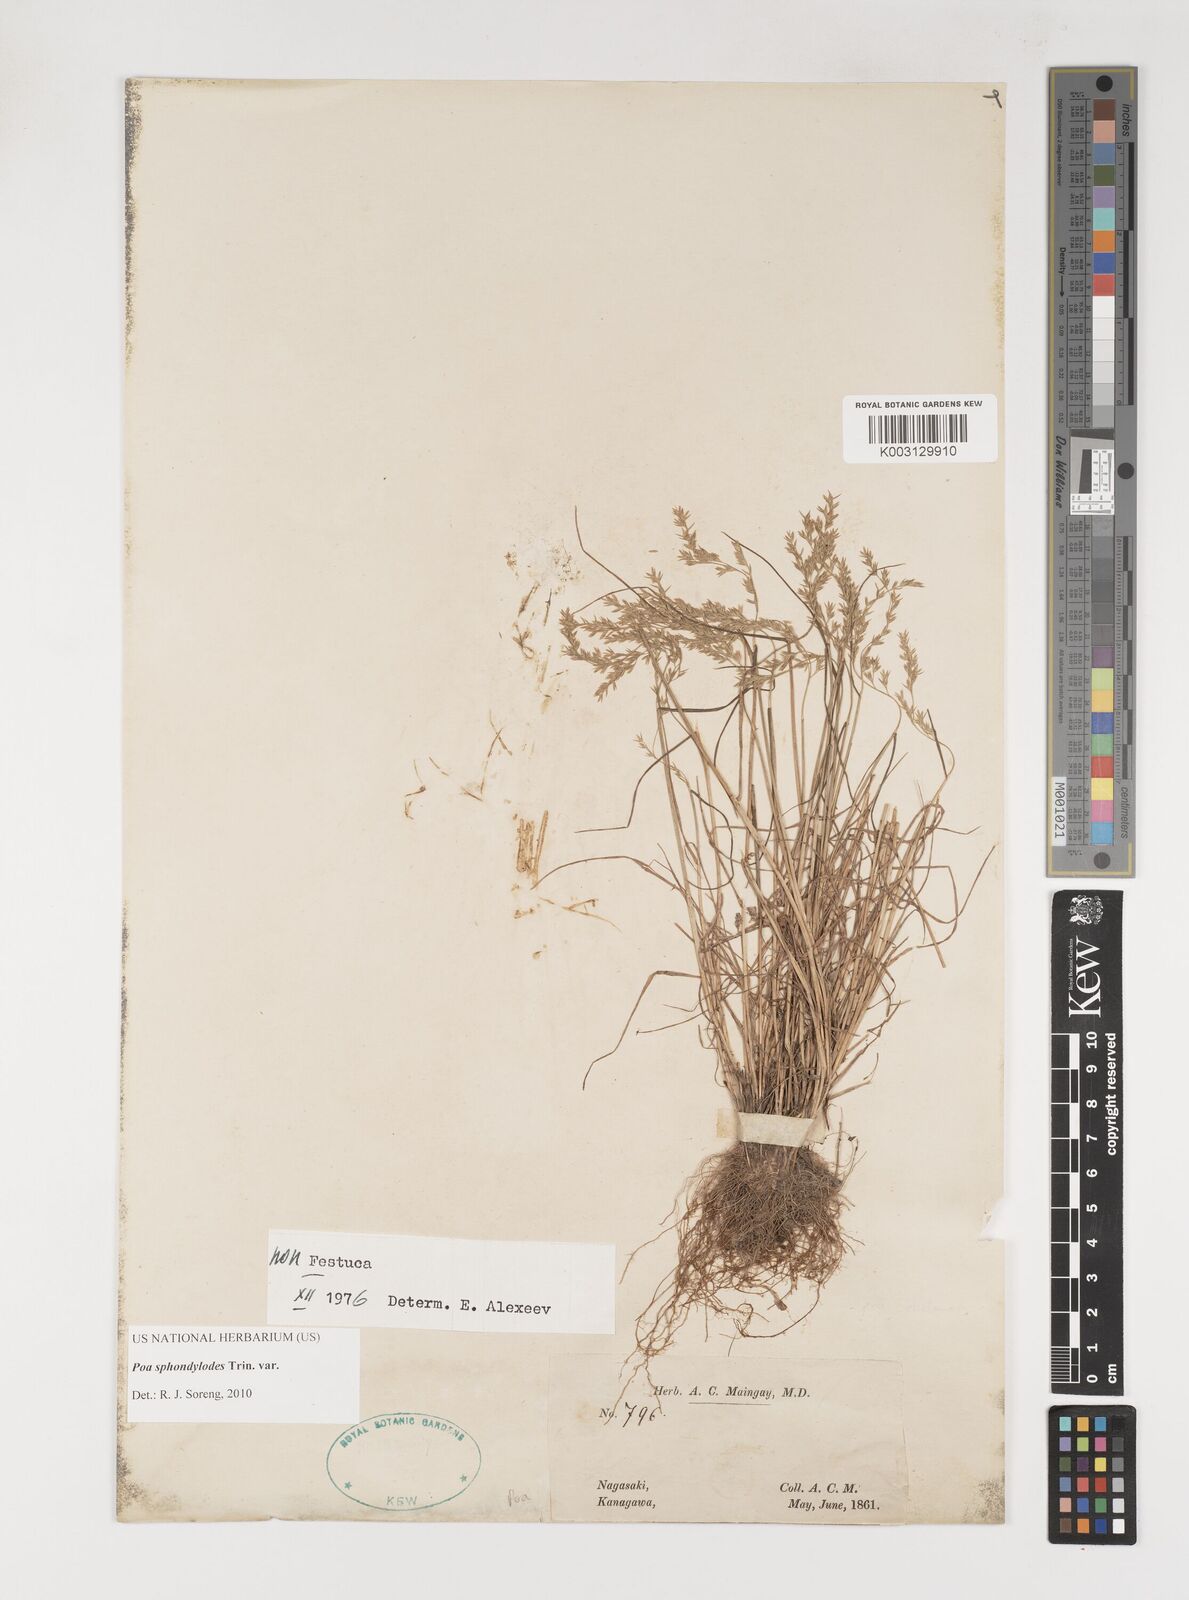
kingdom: Plantae
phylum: Tracheophyta
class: Liliopsida
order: Poales
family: Poaceae
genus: Poa
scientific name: Poa sphondylodes
